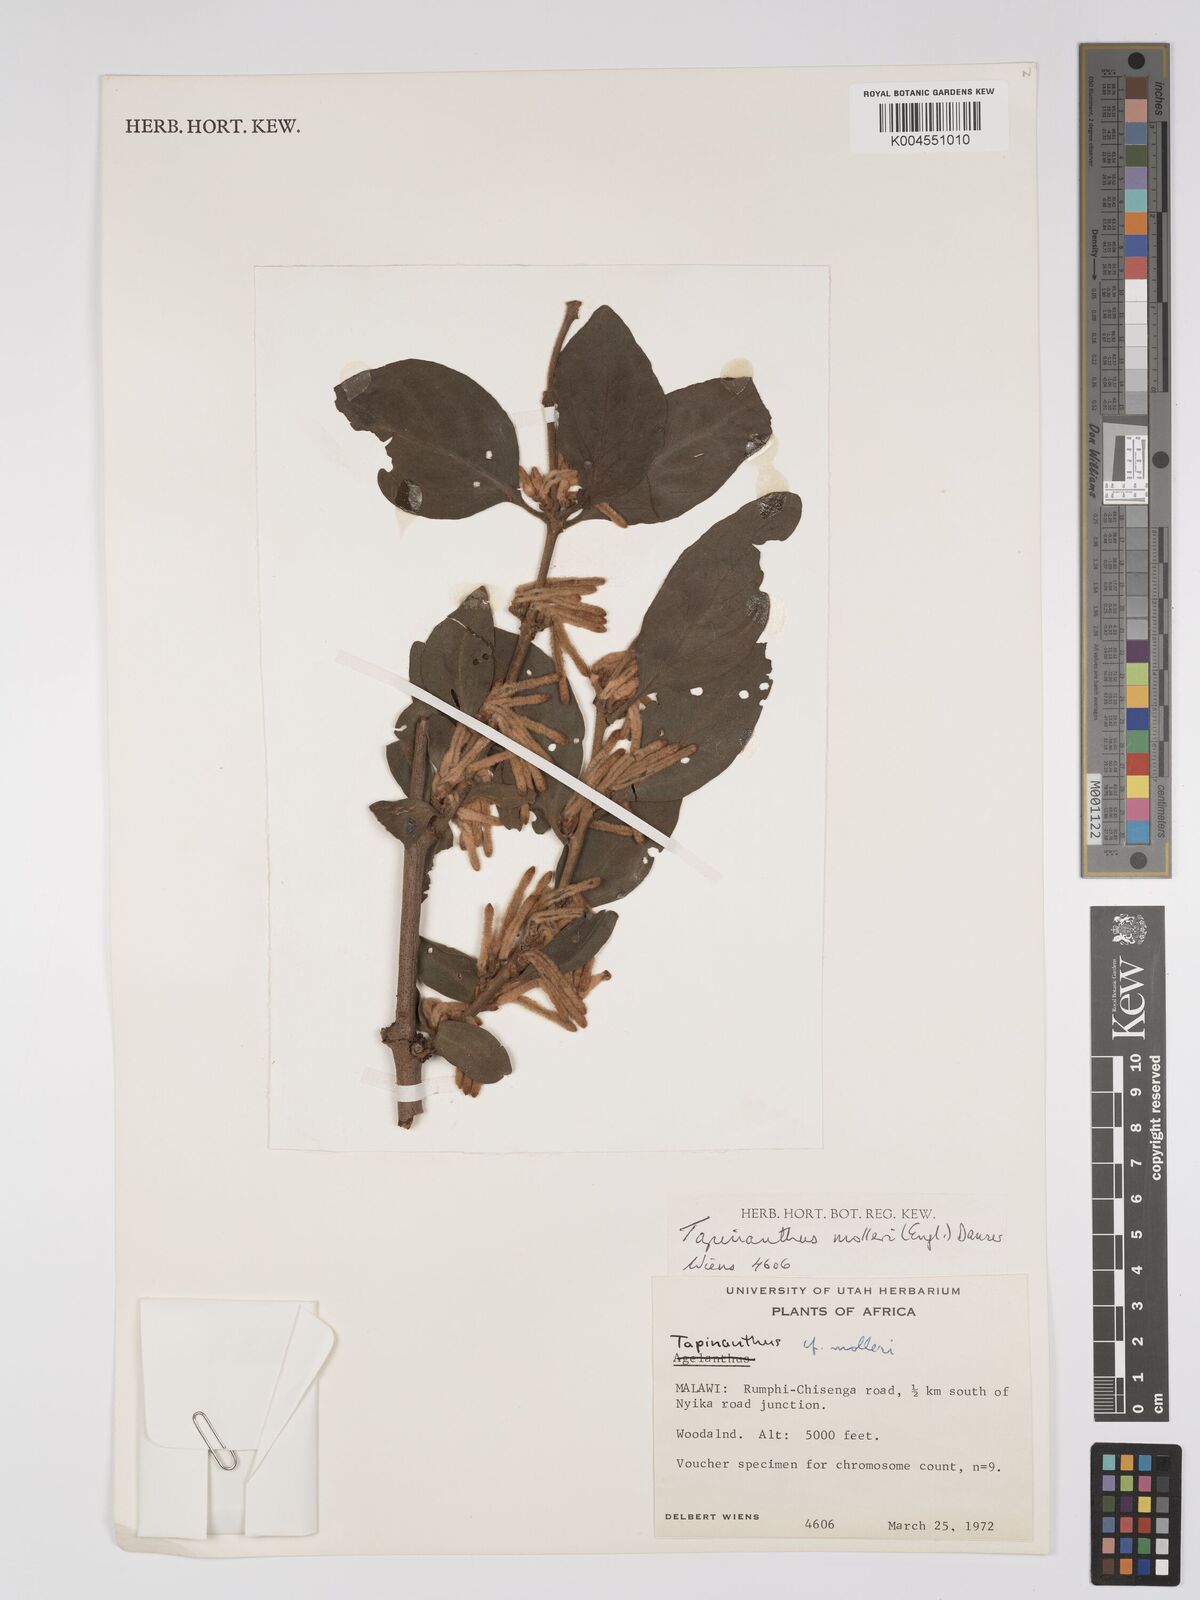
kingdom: Plantae
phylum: Tracheophyta
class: Magnoliopsida
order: Santalales
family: Loranthaceae
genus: Agelanthus
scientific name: Agelanthus molleri
